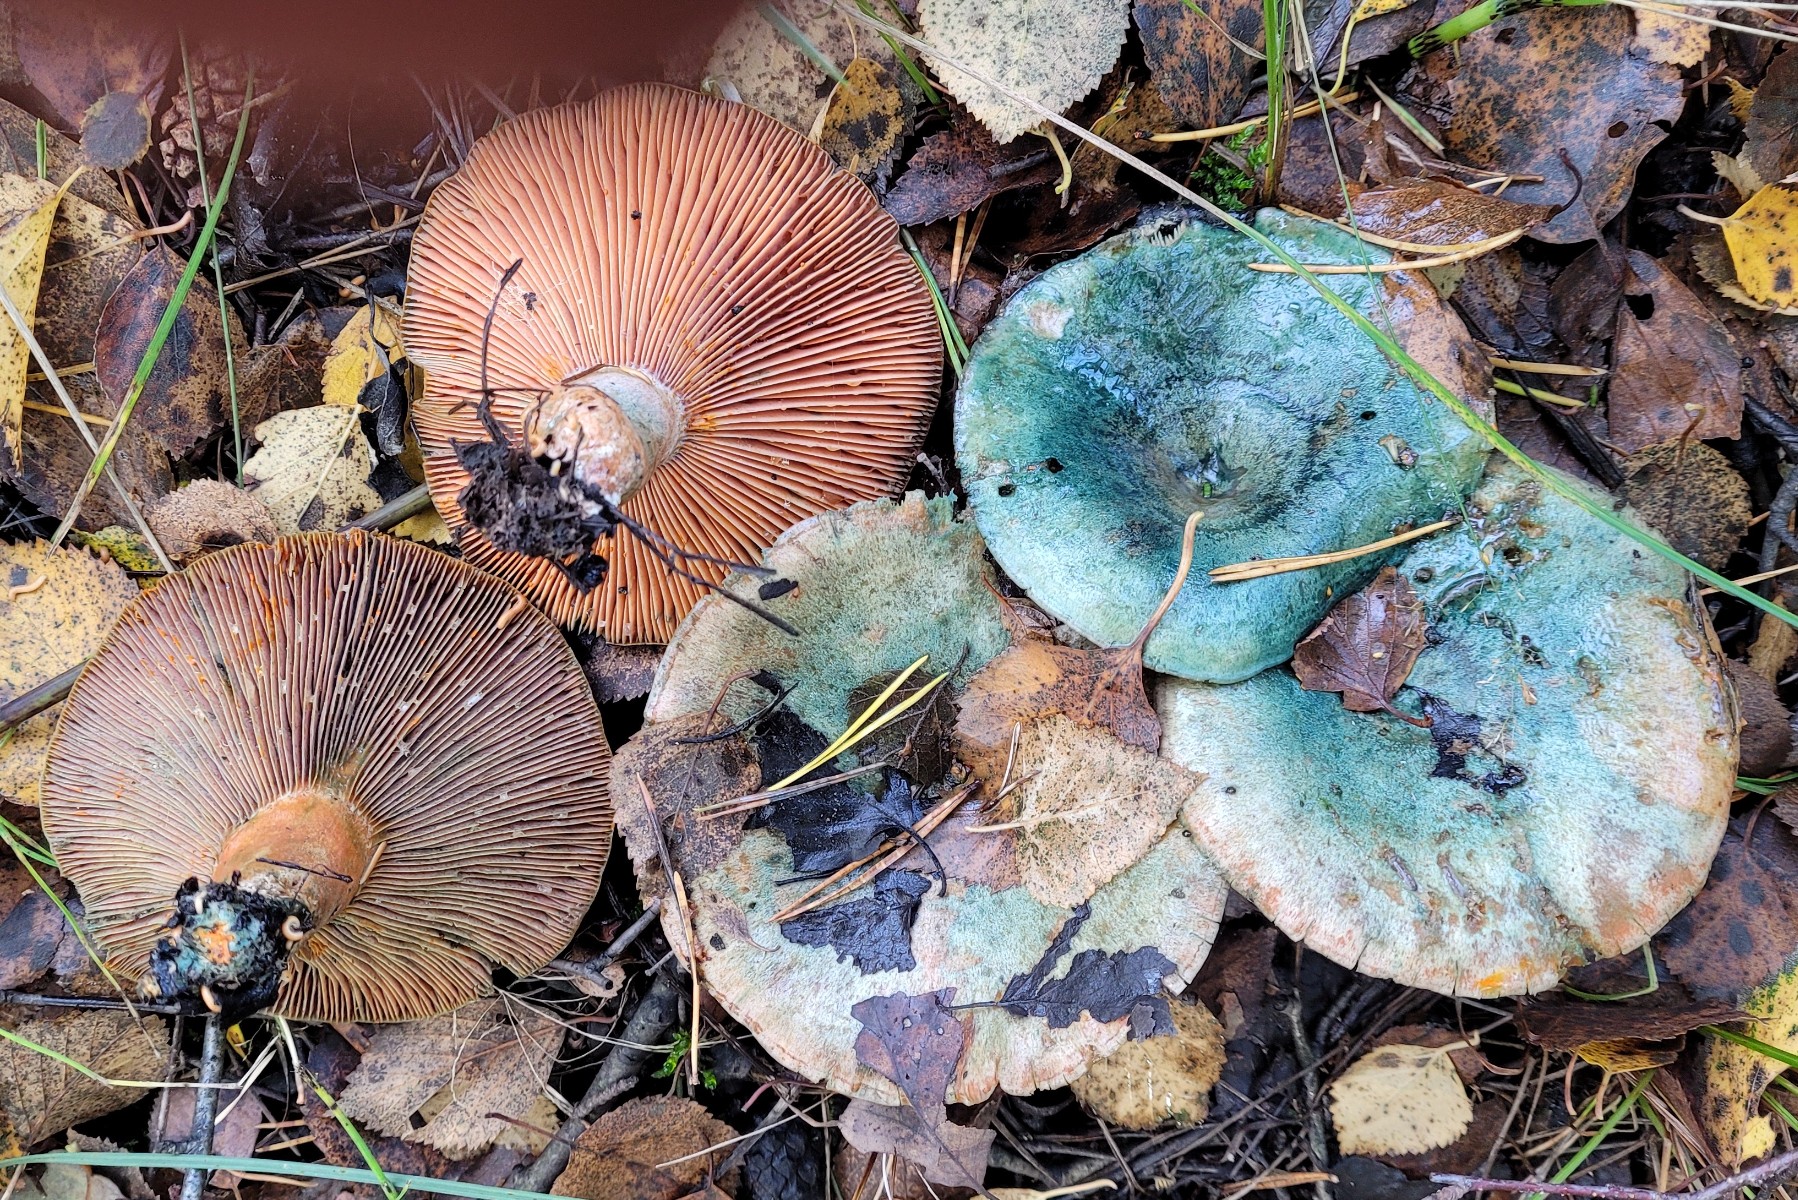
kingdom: Fungi
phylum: Basidiomycota
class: Agaricomycetes
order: Russulales
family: Russulaceae
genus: Lactarius
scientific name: Lactarius quieticolor
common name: tvefarvet mælkehat
